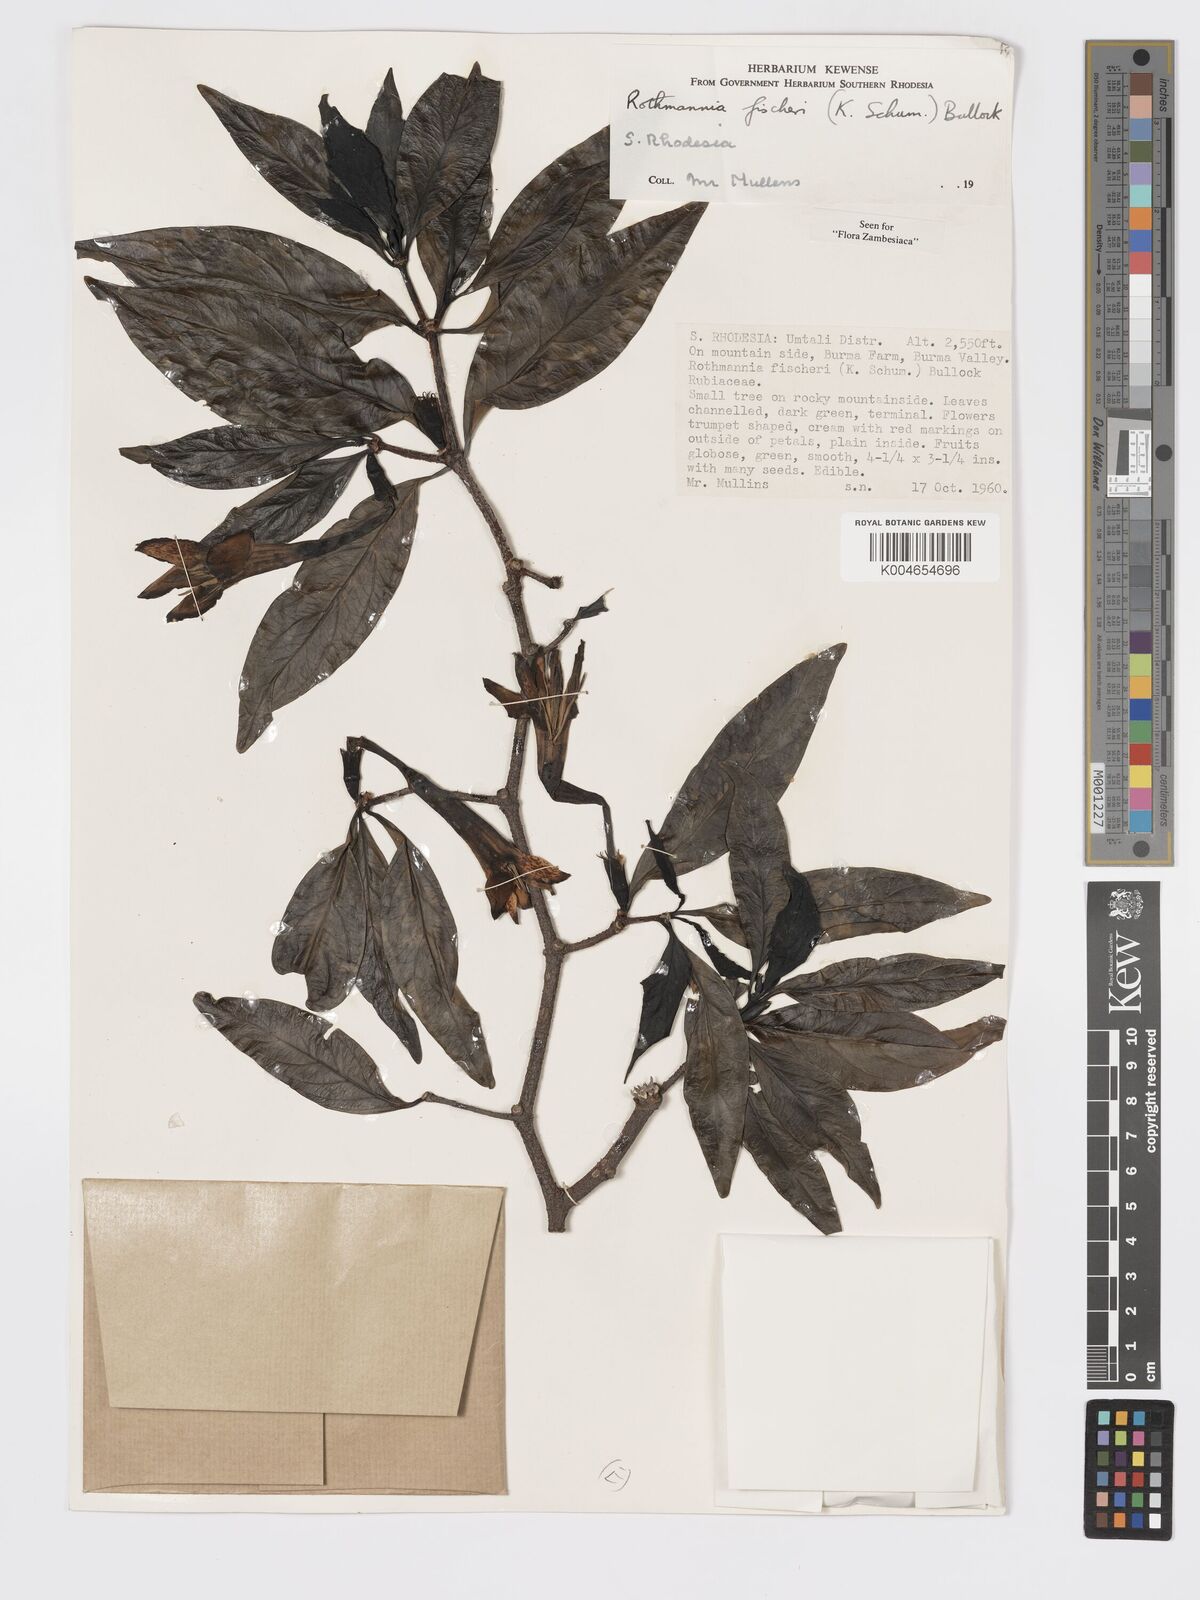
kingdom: Plantae
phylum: Tracheophyta
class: Magnoliopsida
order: Gentianales
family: Rubiaceae
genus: Rothmannia
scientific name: Rothmannia fischeri
